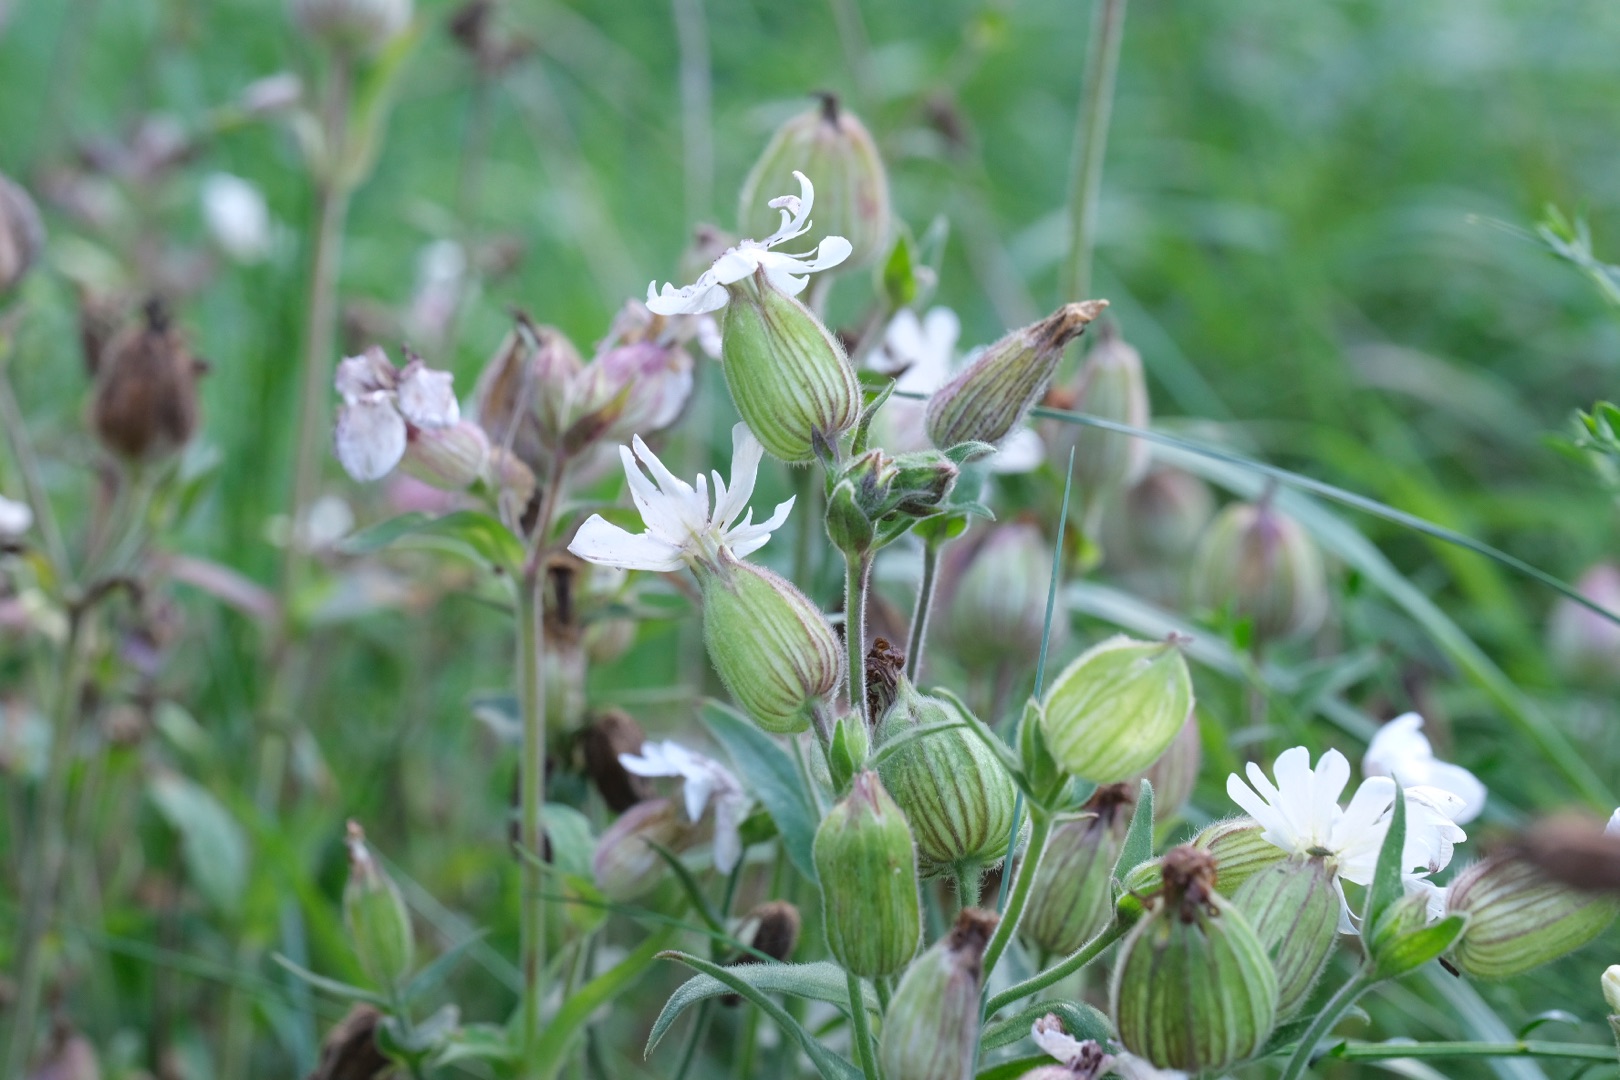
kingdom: Plantae
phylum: Tracheophyta
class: Magnoliopsida
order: Caryophyllales
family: Caryophyllaceae
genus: Silene
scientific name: Silene latifolia
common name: Aftenpragtstjerne
